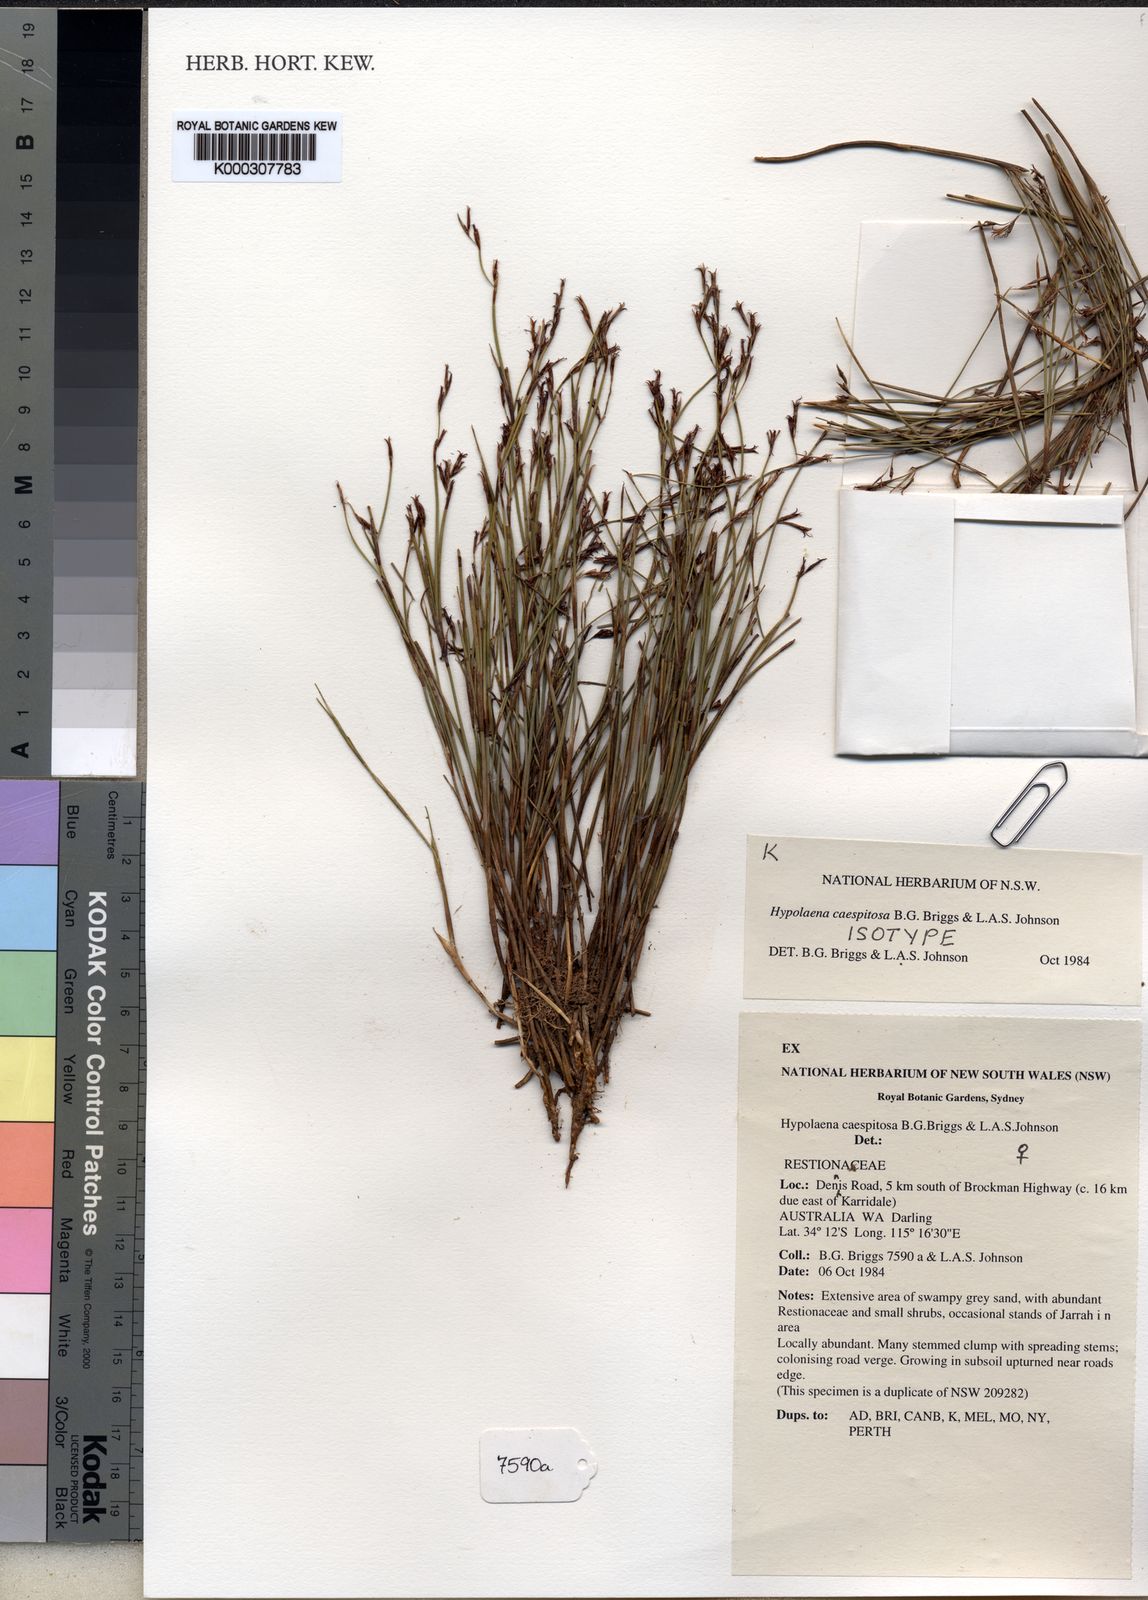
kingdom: Plantae
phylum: Tracheophyta
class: Liliopsida
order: Poales
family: Restionaceae
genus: Hypolaena
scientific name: Hypolaena caespitosa
